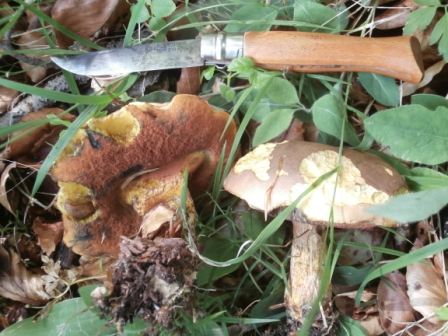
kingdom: Fungi
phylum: Basidiomycota
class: Agaricomycetes
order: Boletales
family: Boletaceae
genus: Neoboletus
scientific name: Neoboletus erythropus
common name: punktstokket indigorørhat
